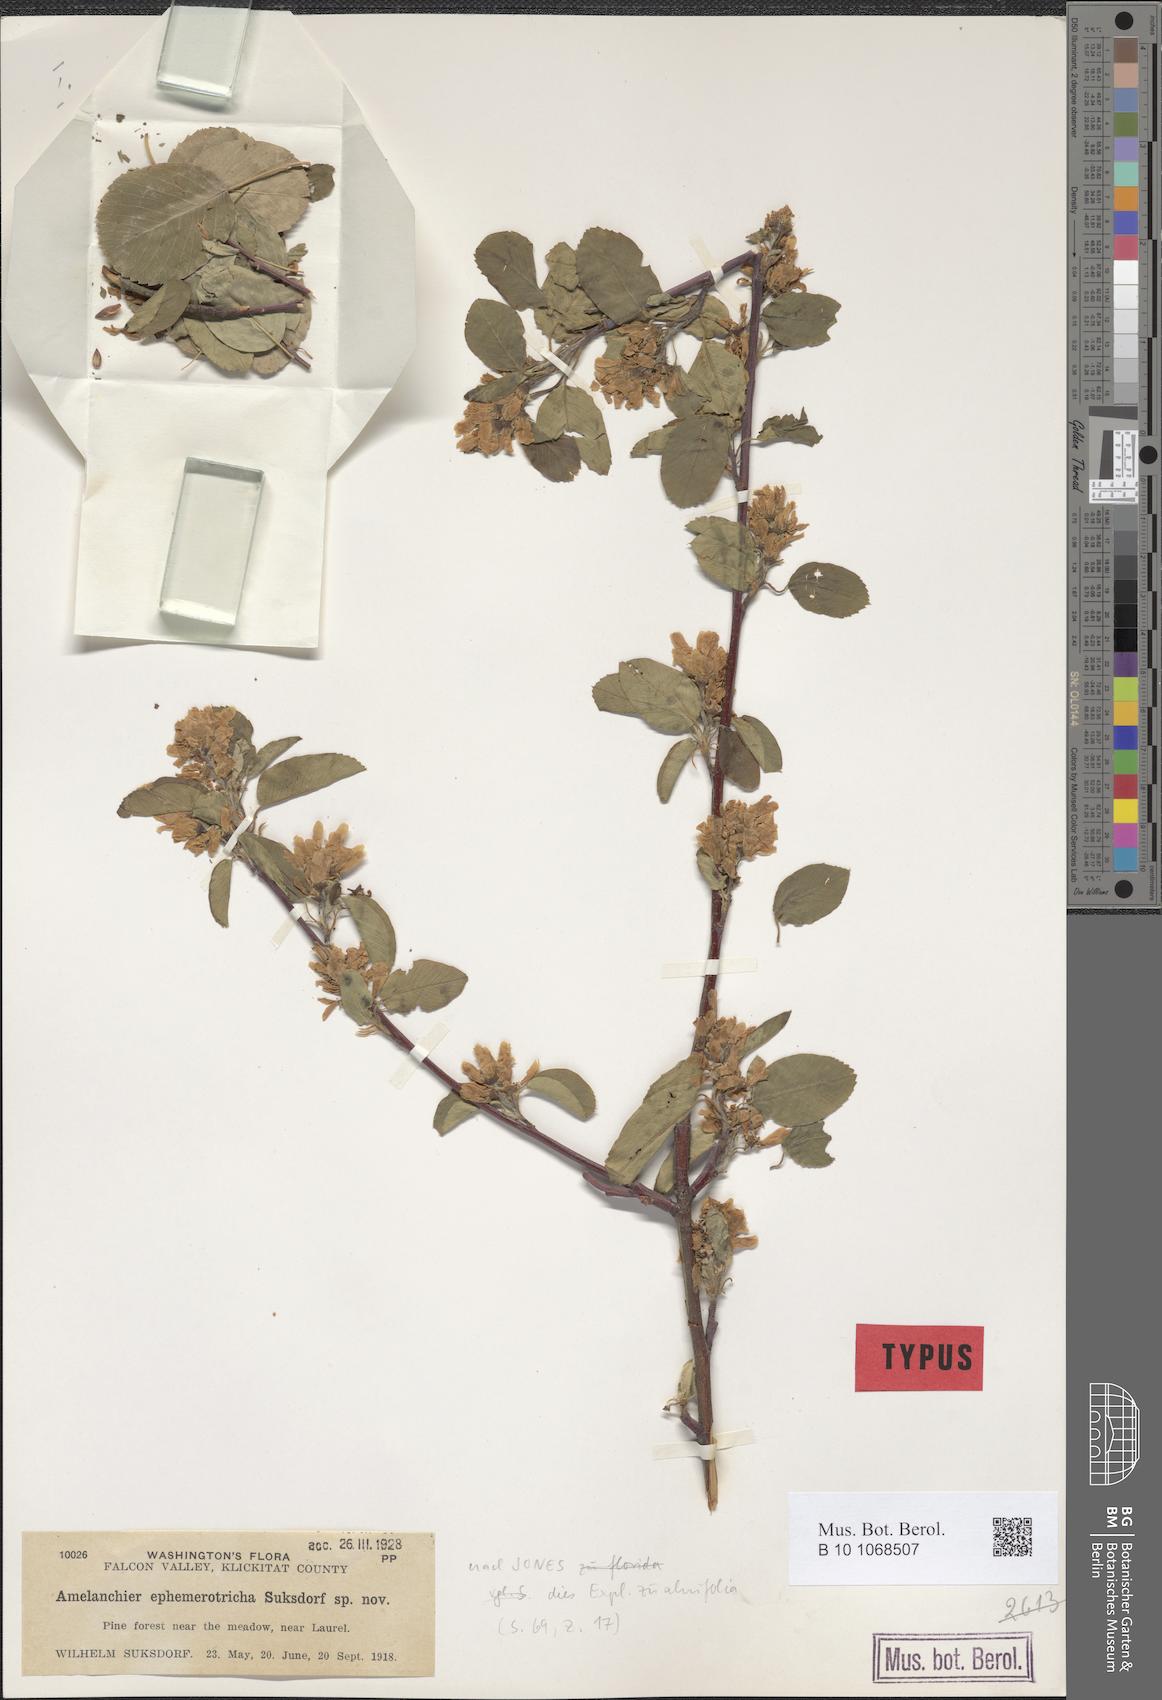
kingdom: Plantae
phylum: Tracheophyta
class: Magnoliopsida
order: Rosales
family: Rosaceae
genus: Amelanchier
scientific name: Amelanchier alnifolia
